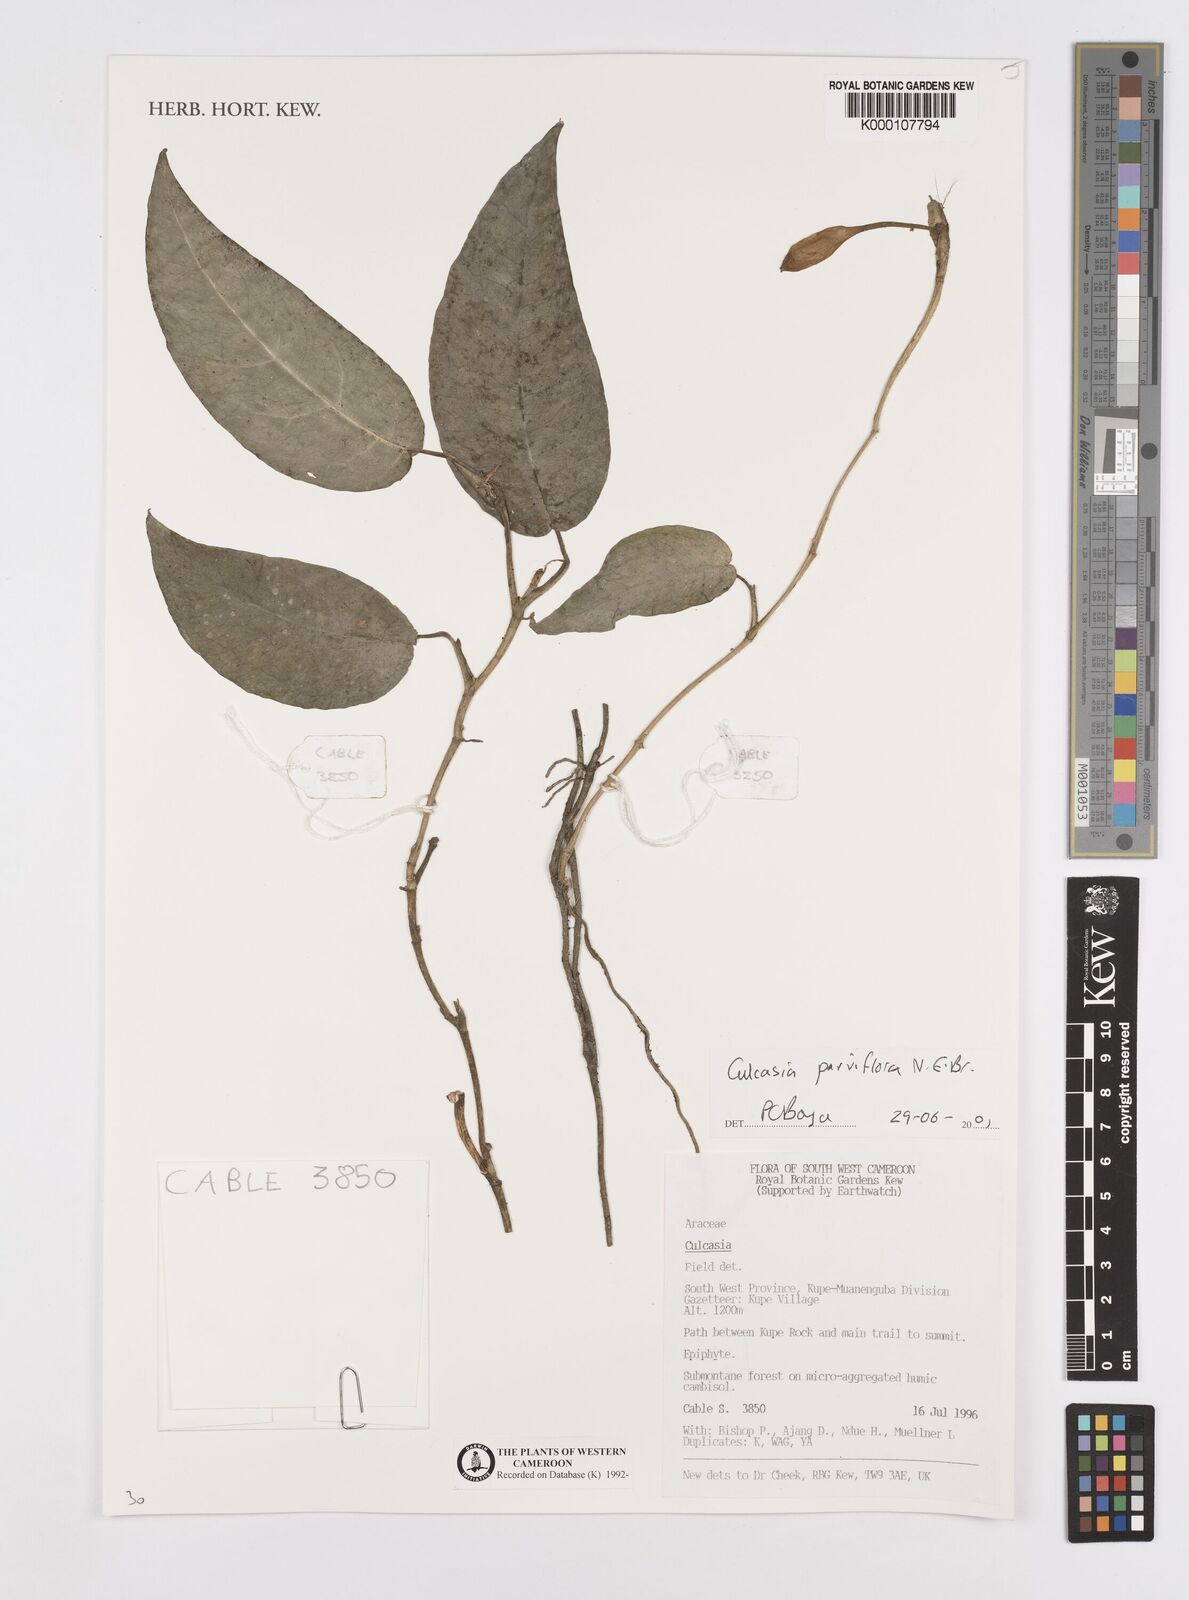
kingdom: Plantae
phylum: Tracheophyta
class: Liliopsida
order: Alismatales
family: Araceae
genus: Culcasia
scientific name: Culcasia parviflora
